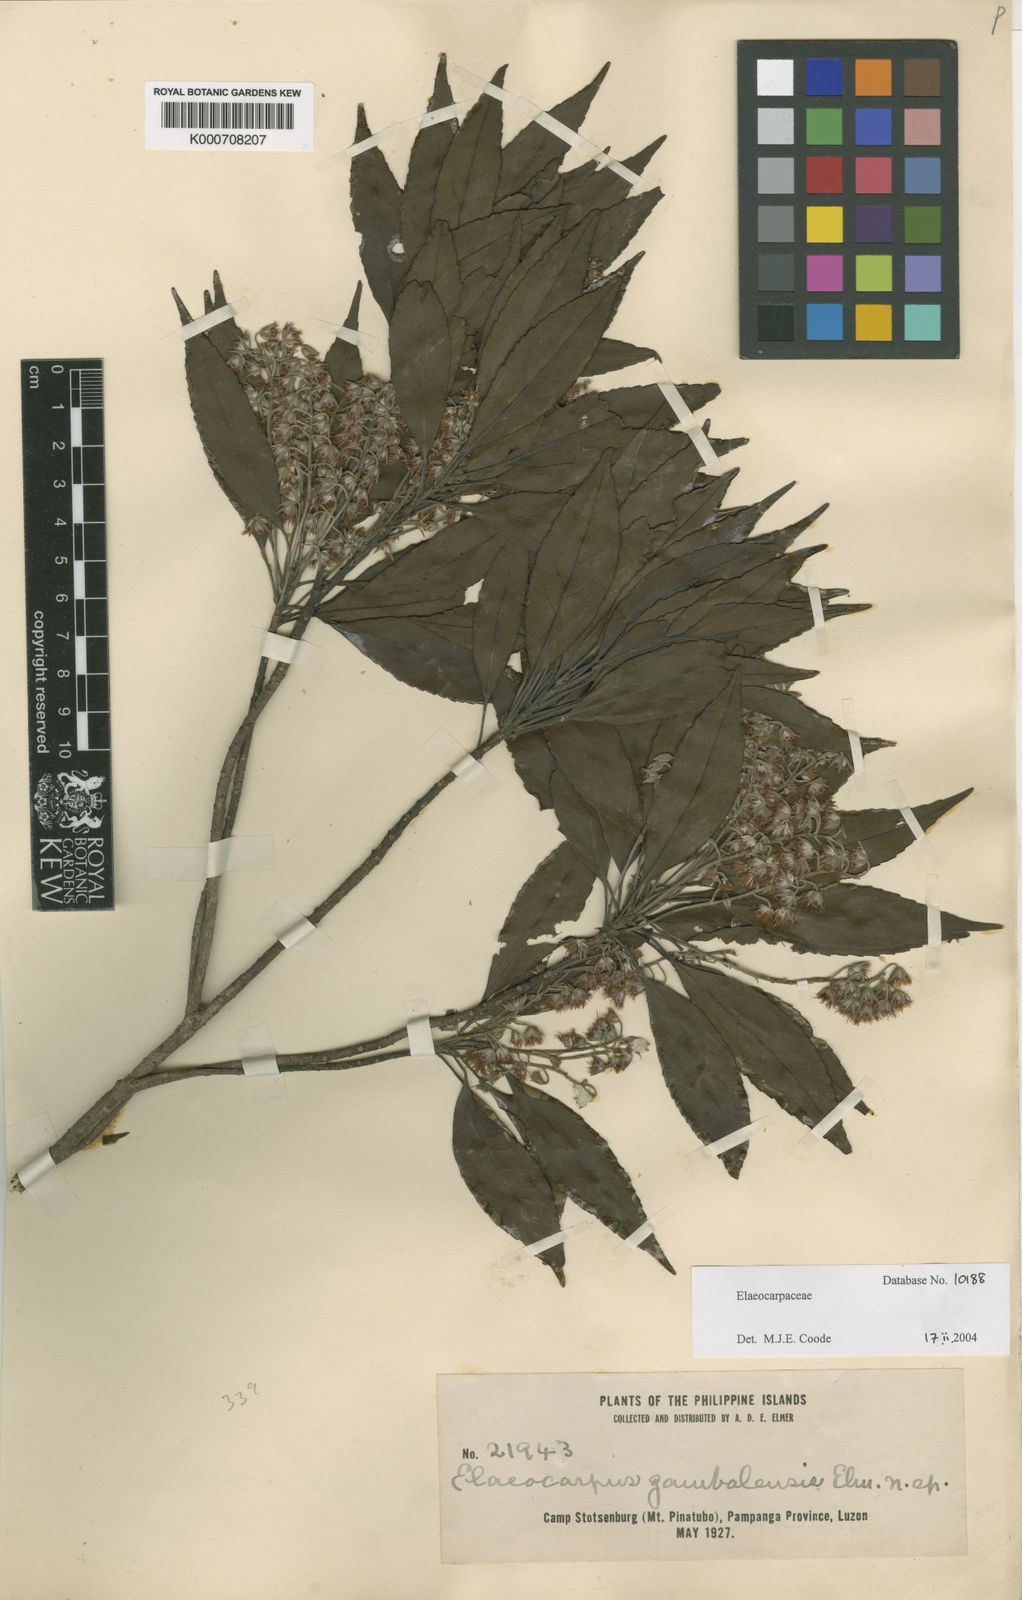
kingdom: Plantae
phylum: Tracheophyta
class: Magnoliopsida
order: Oxalidales
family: Elaeocarpaceae
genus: Elaeocarpus
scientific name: Elaeocarpus argenteus
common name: Flowering plant
